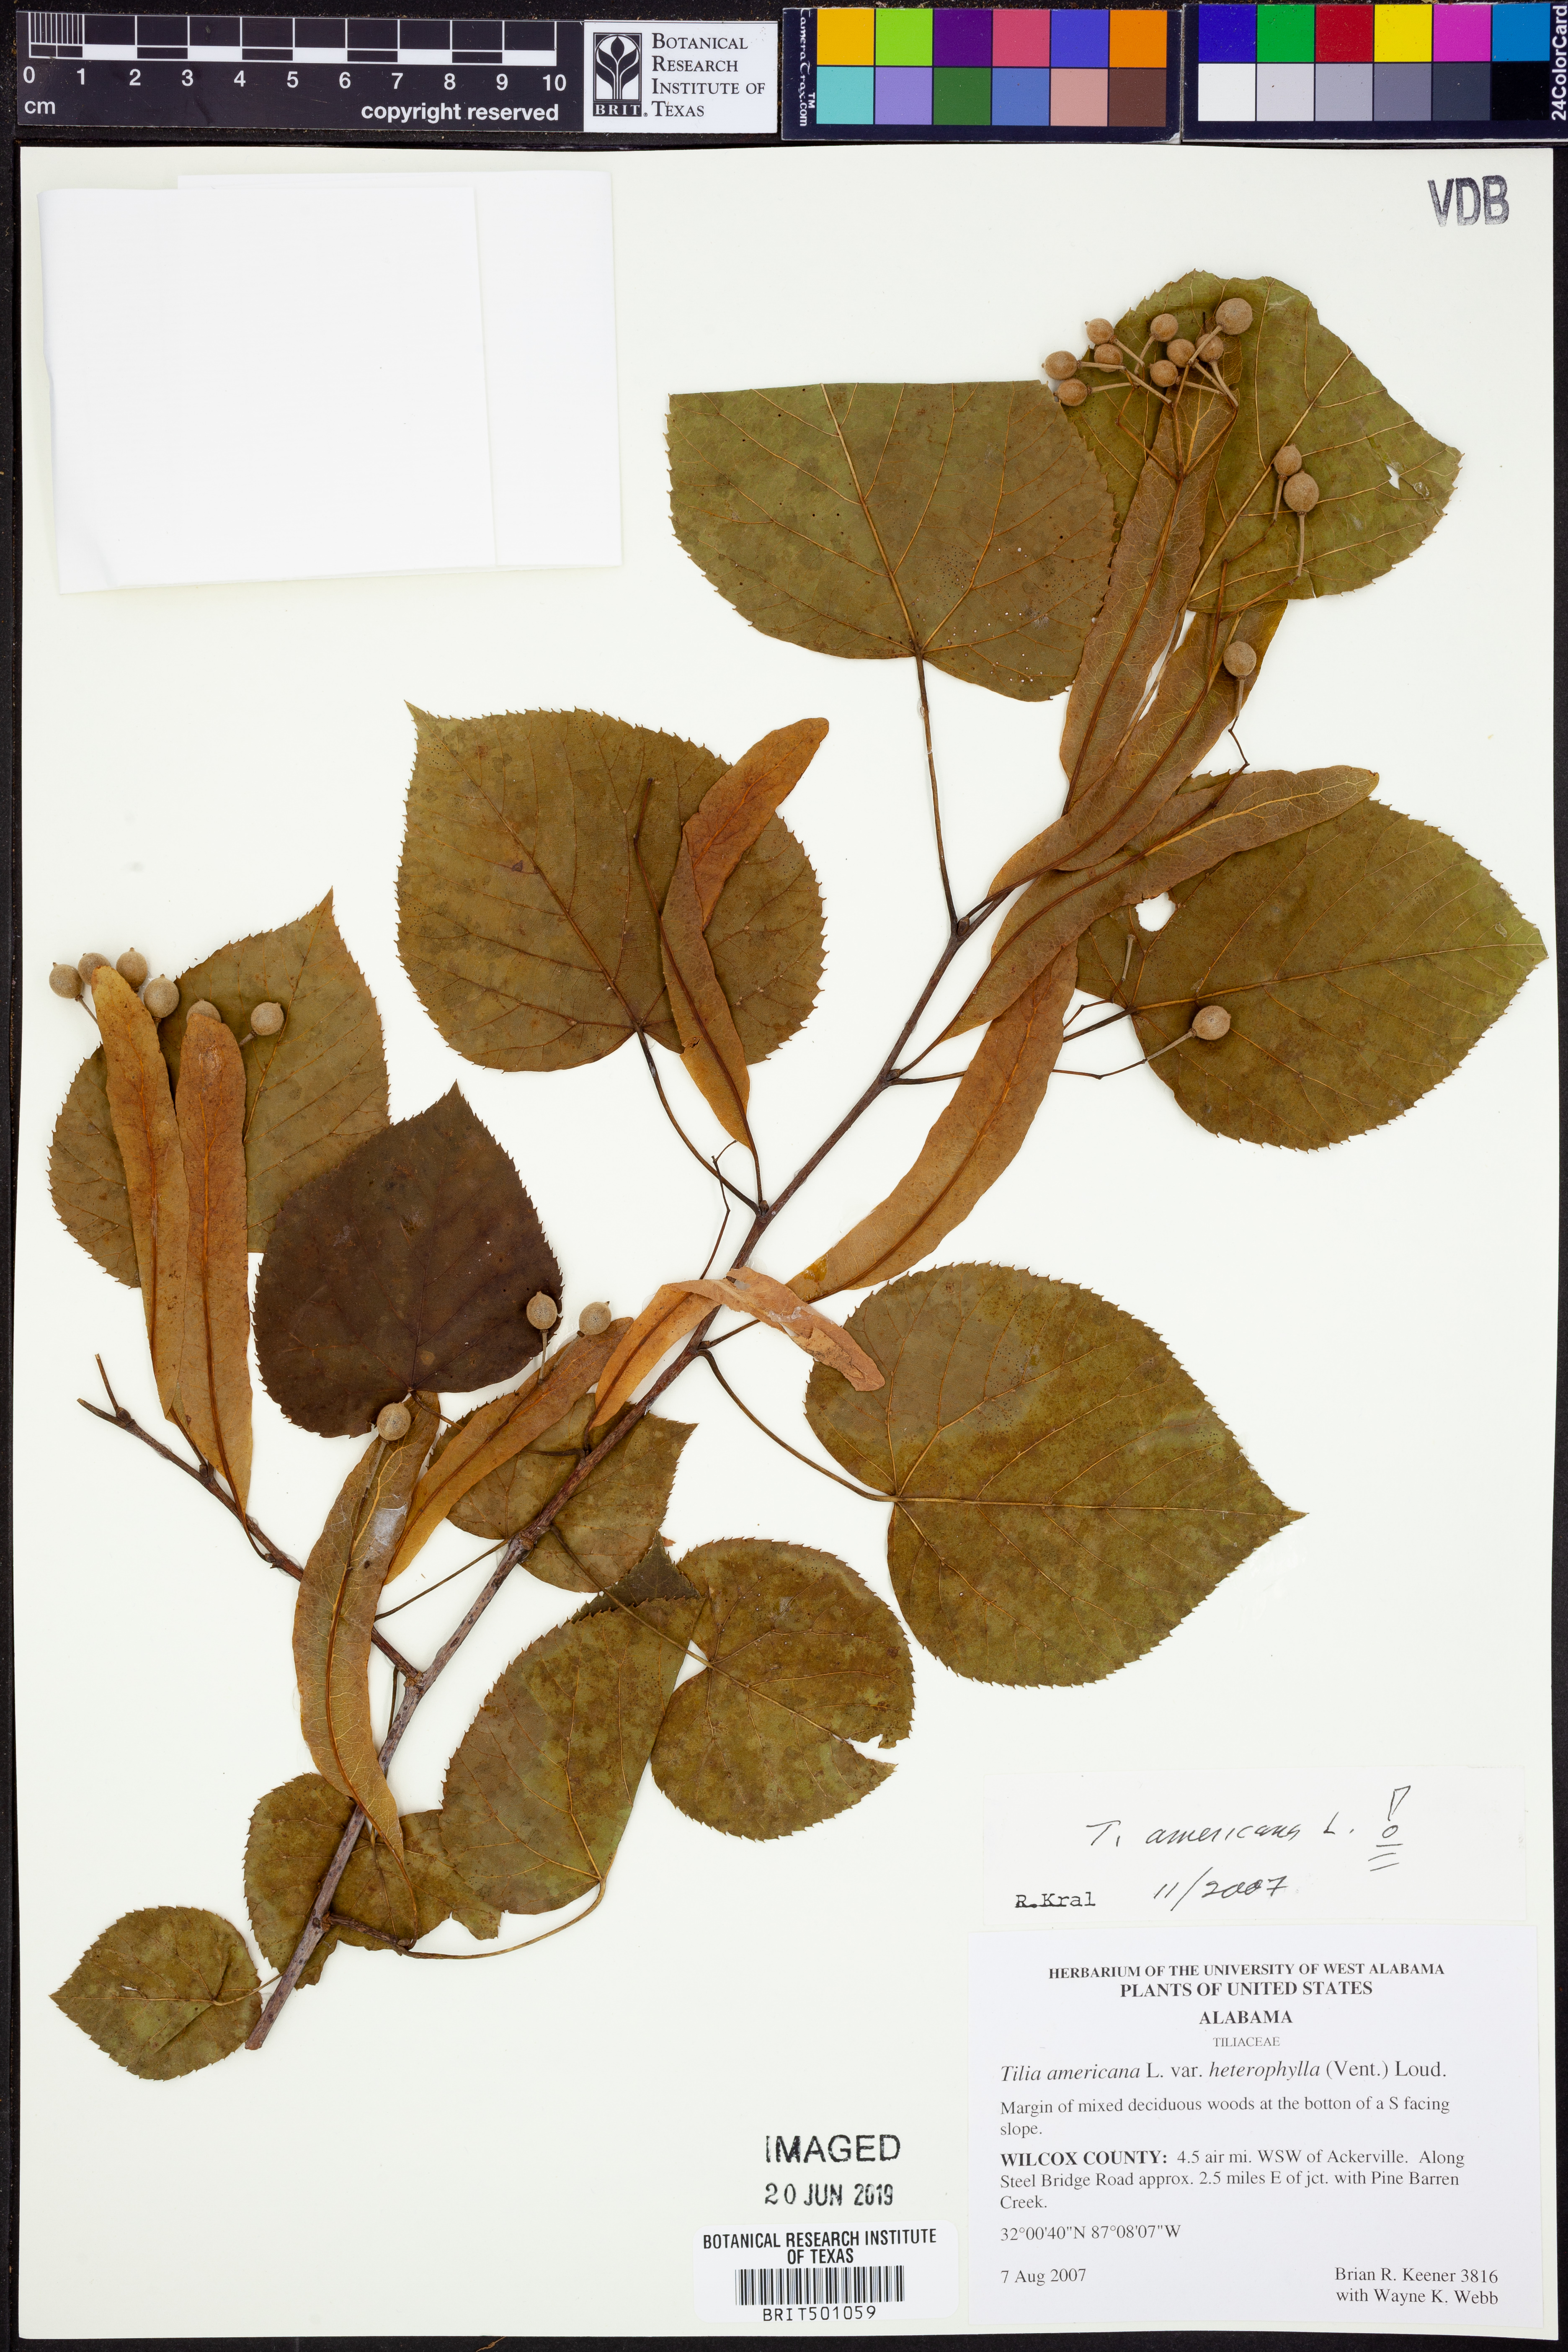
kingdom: Plantae
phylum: Tracheophyta
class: Magnoliopsida
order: Malvales
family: Malvaceae
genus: Tilia
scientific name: Tilia americana
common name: Basswood
